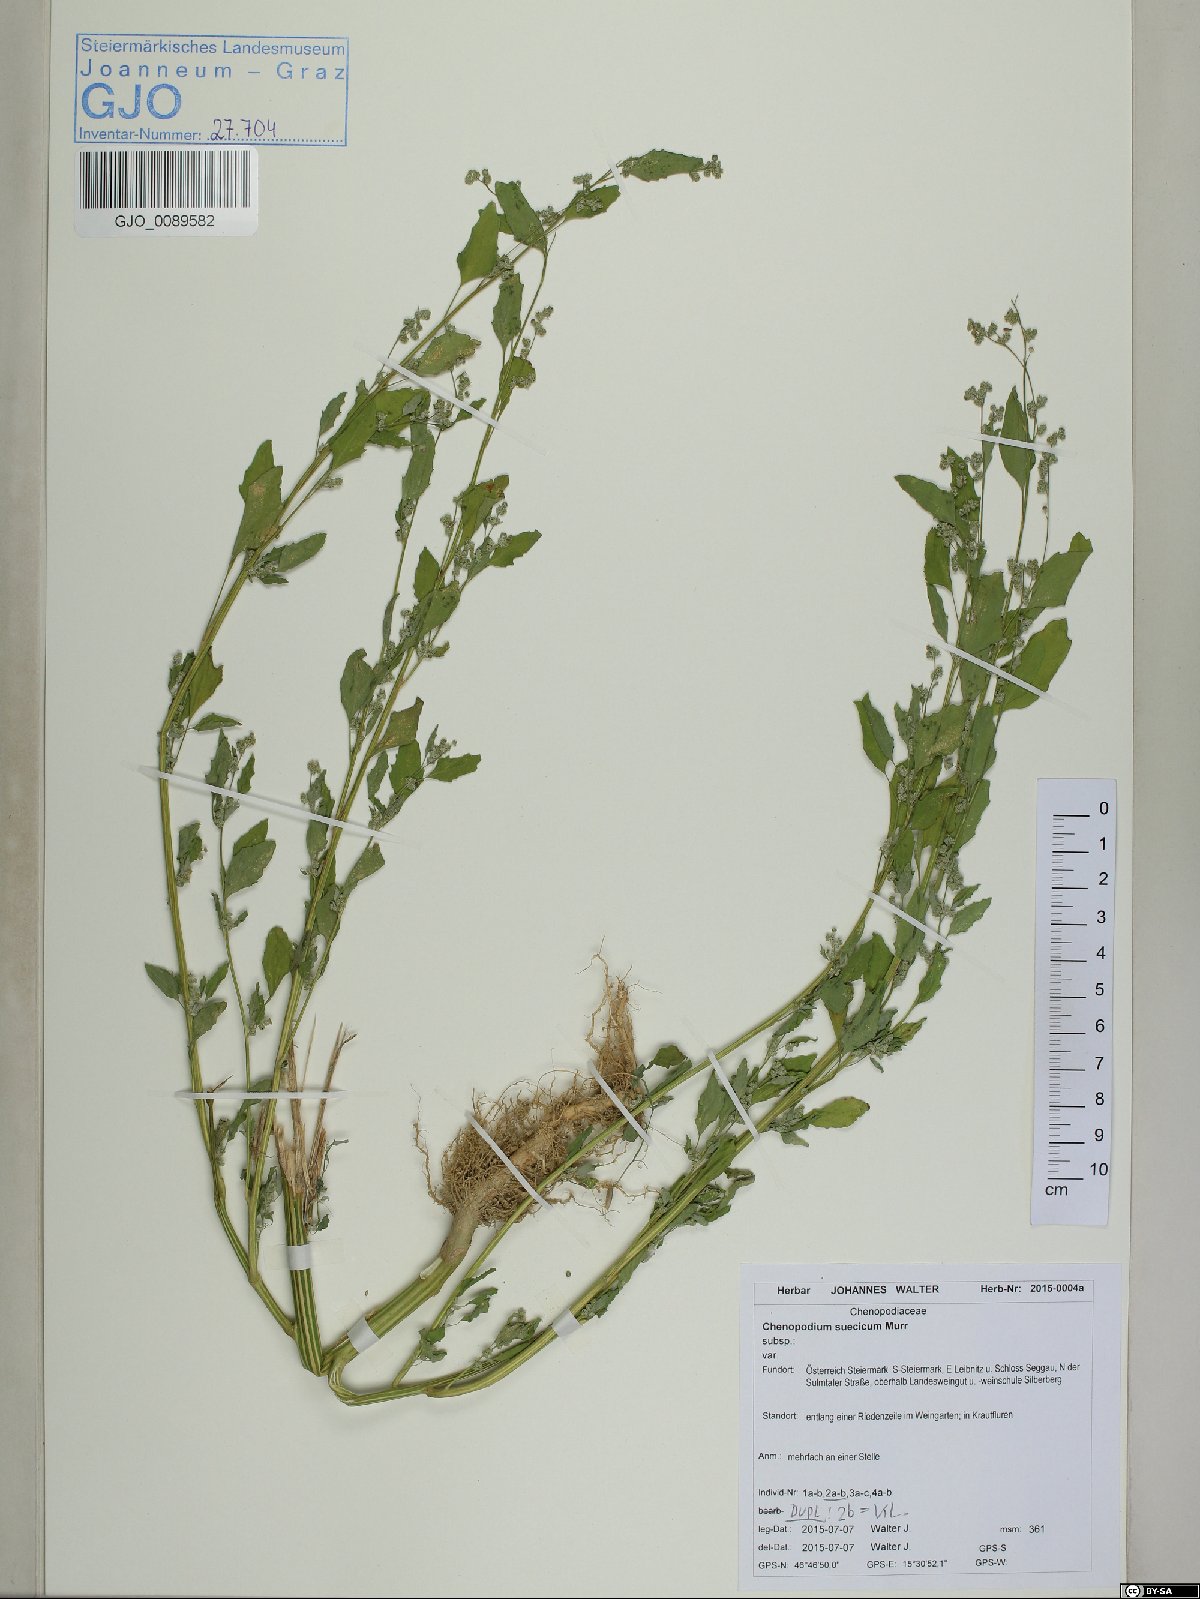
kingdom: Plantae
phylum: Tracheophyta
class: Magnoliopsida
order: Caryophyllales
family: Amaranthaceae
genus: Chenopodium
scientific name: Chenopodium suecicum
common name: Swedish goosefoot
